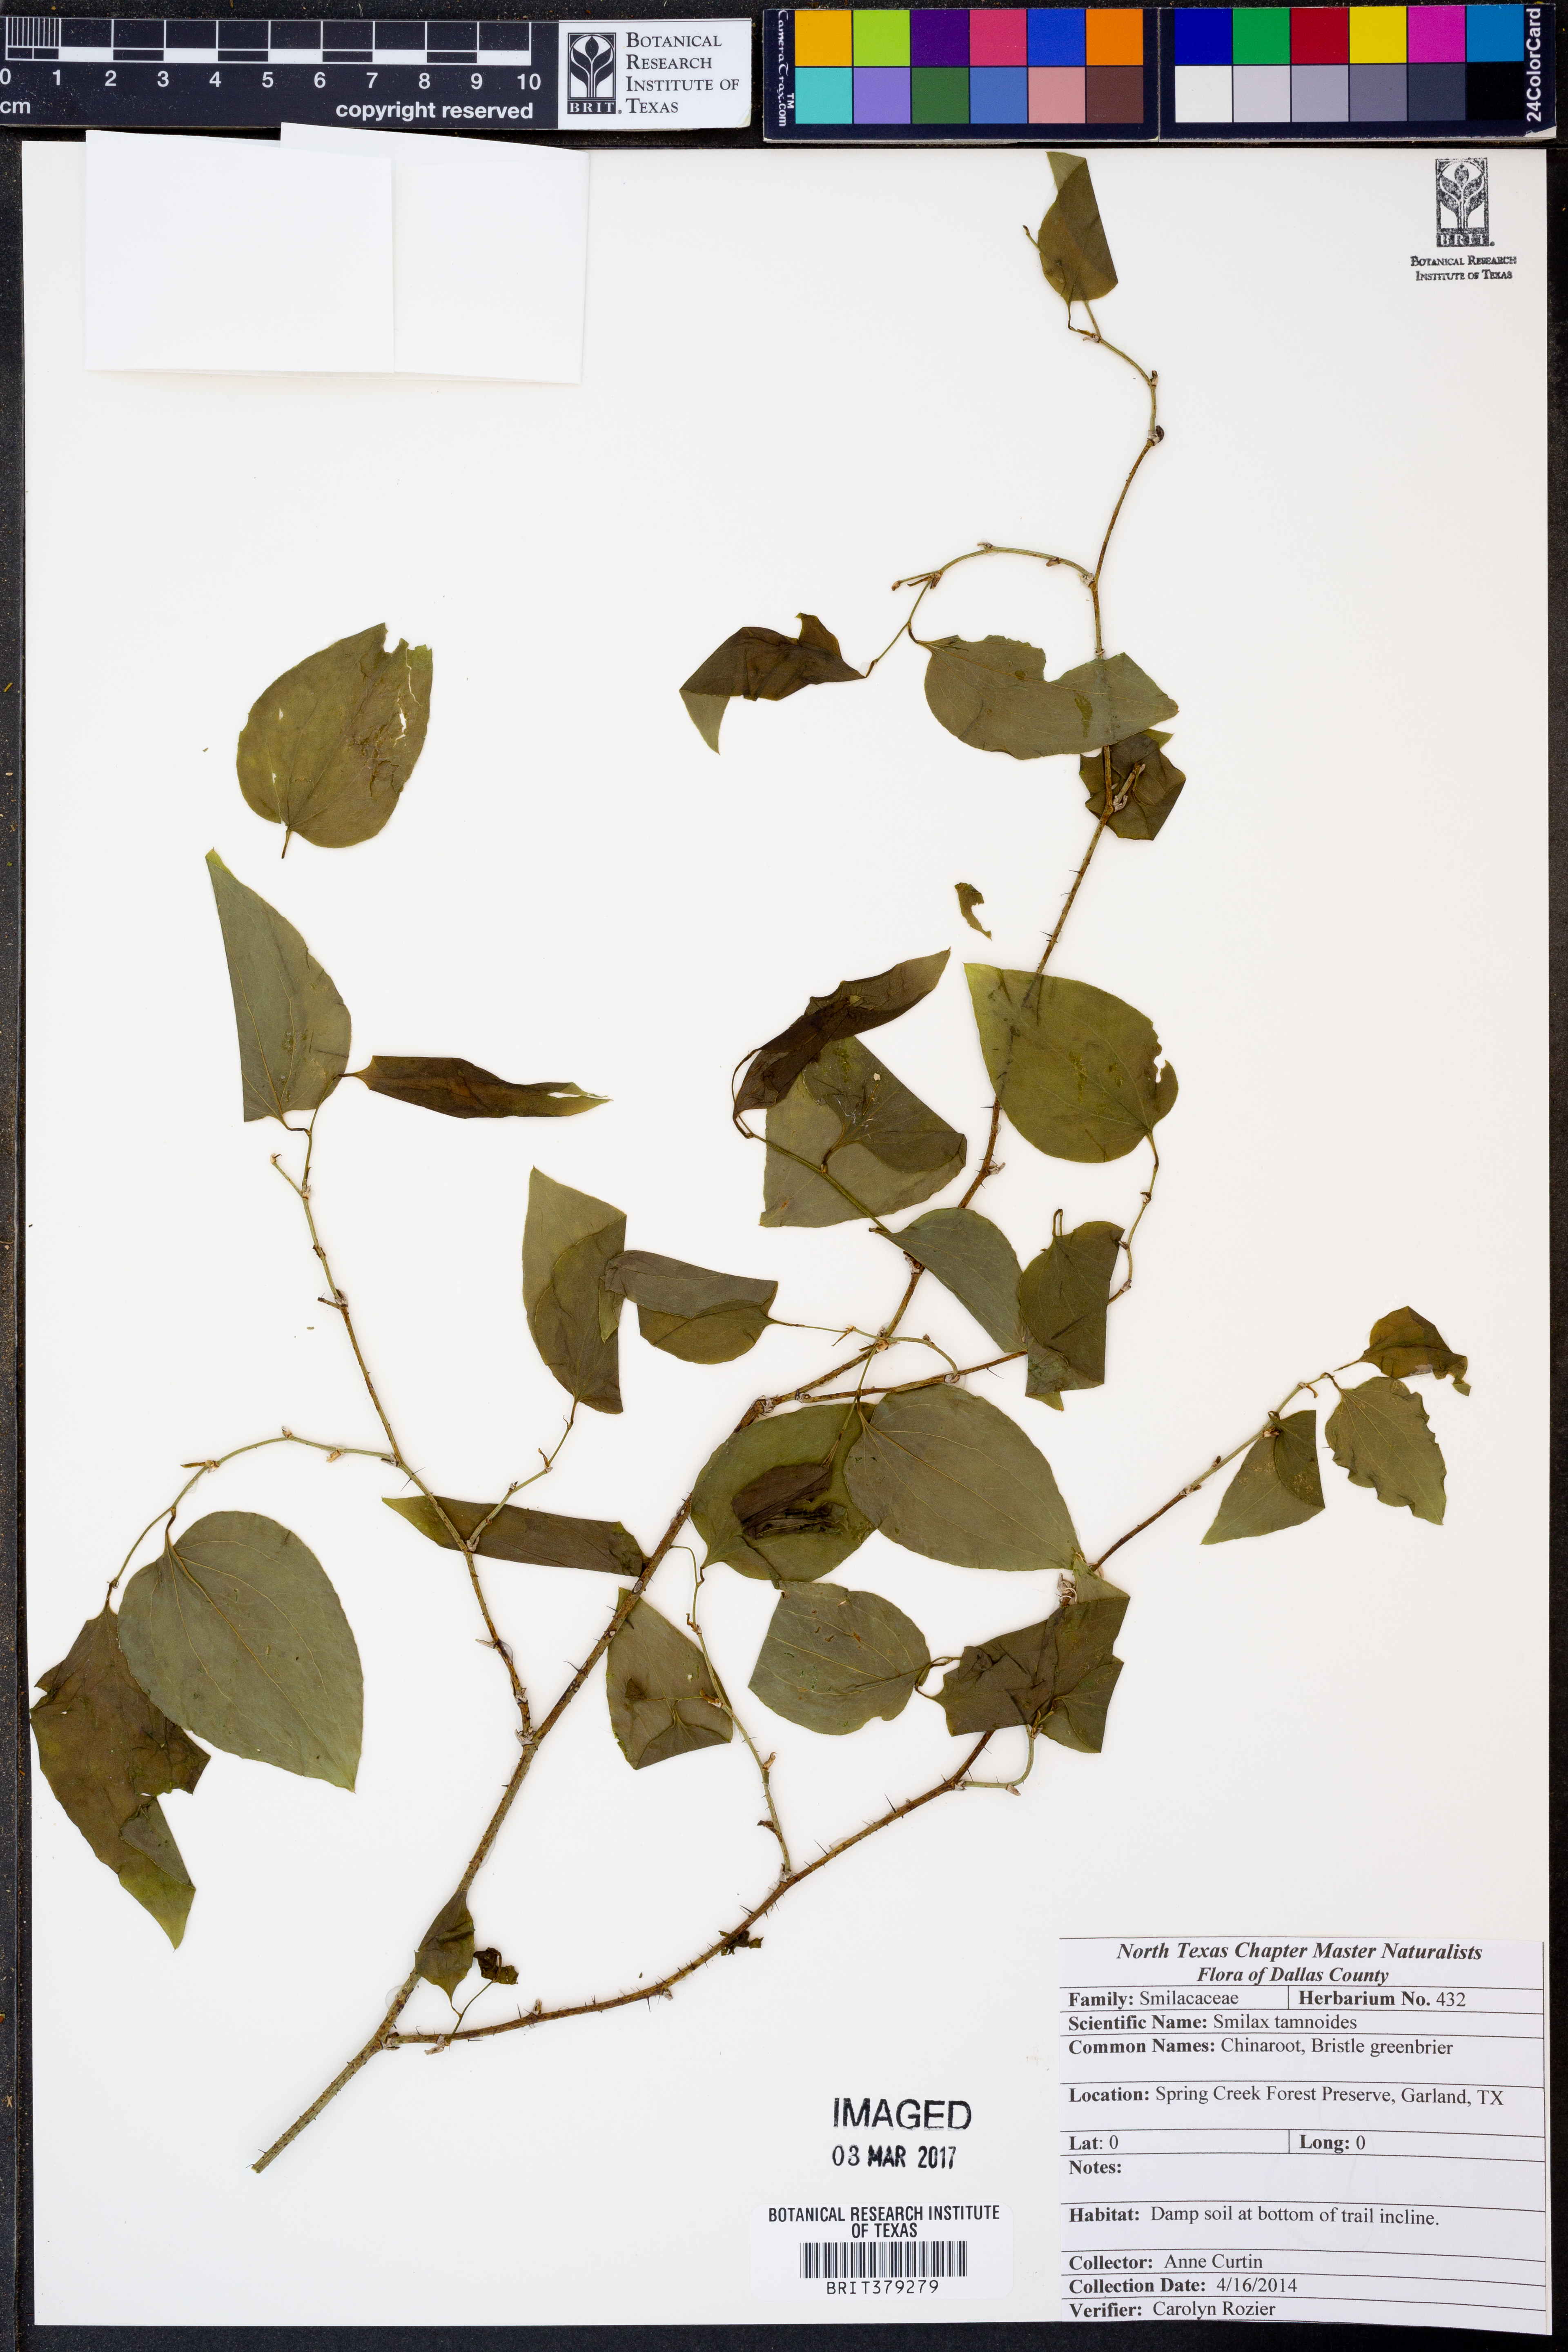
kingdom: Plantae
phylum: Tracheophyta
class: Liliopsida
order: Liliales
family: Smilacaceae
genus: Smilax
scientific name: Smilax tamnoides
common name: Hellfetter
